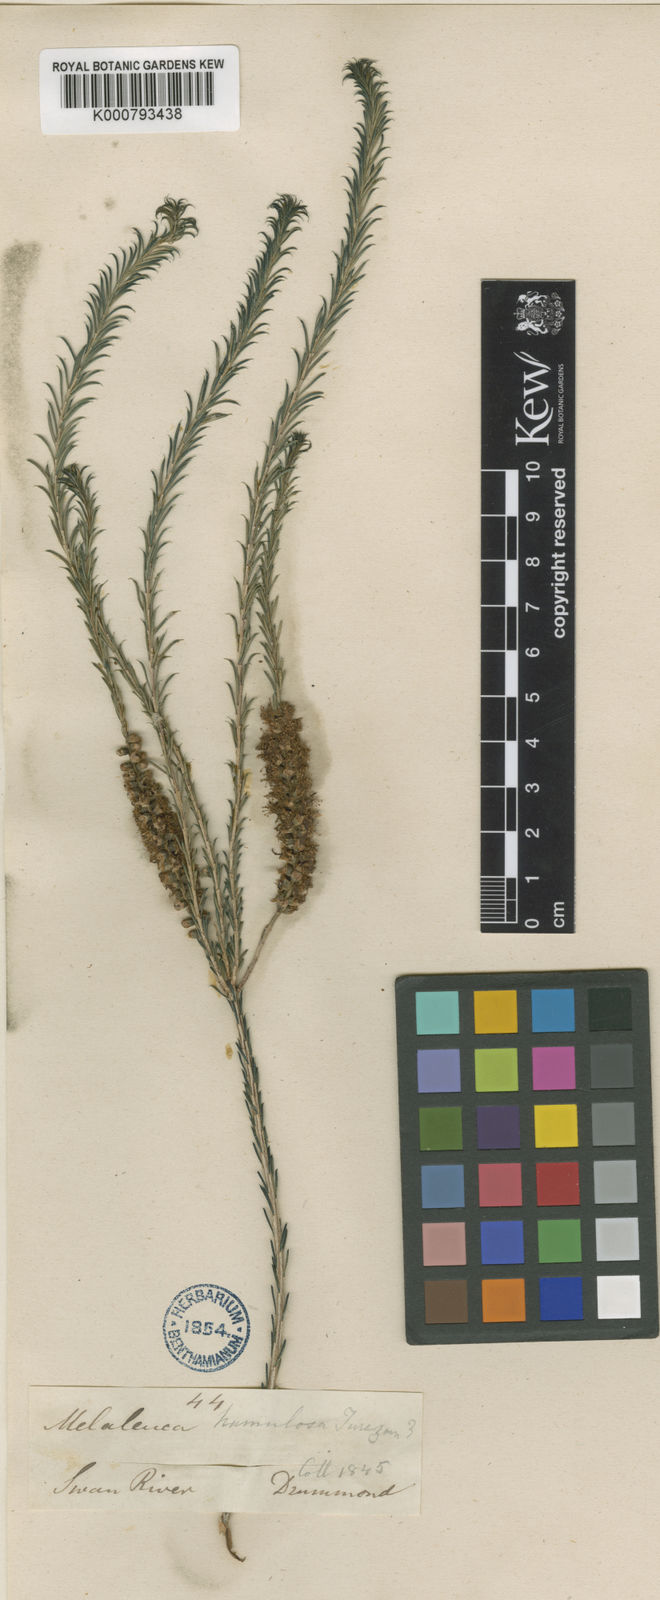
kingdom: Plantae
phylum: Tracheophyta
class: Magnoliopsida
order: Myrtales
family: Myrtaceae
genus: Melaleuca
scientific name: Melaleuca hamulosa
